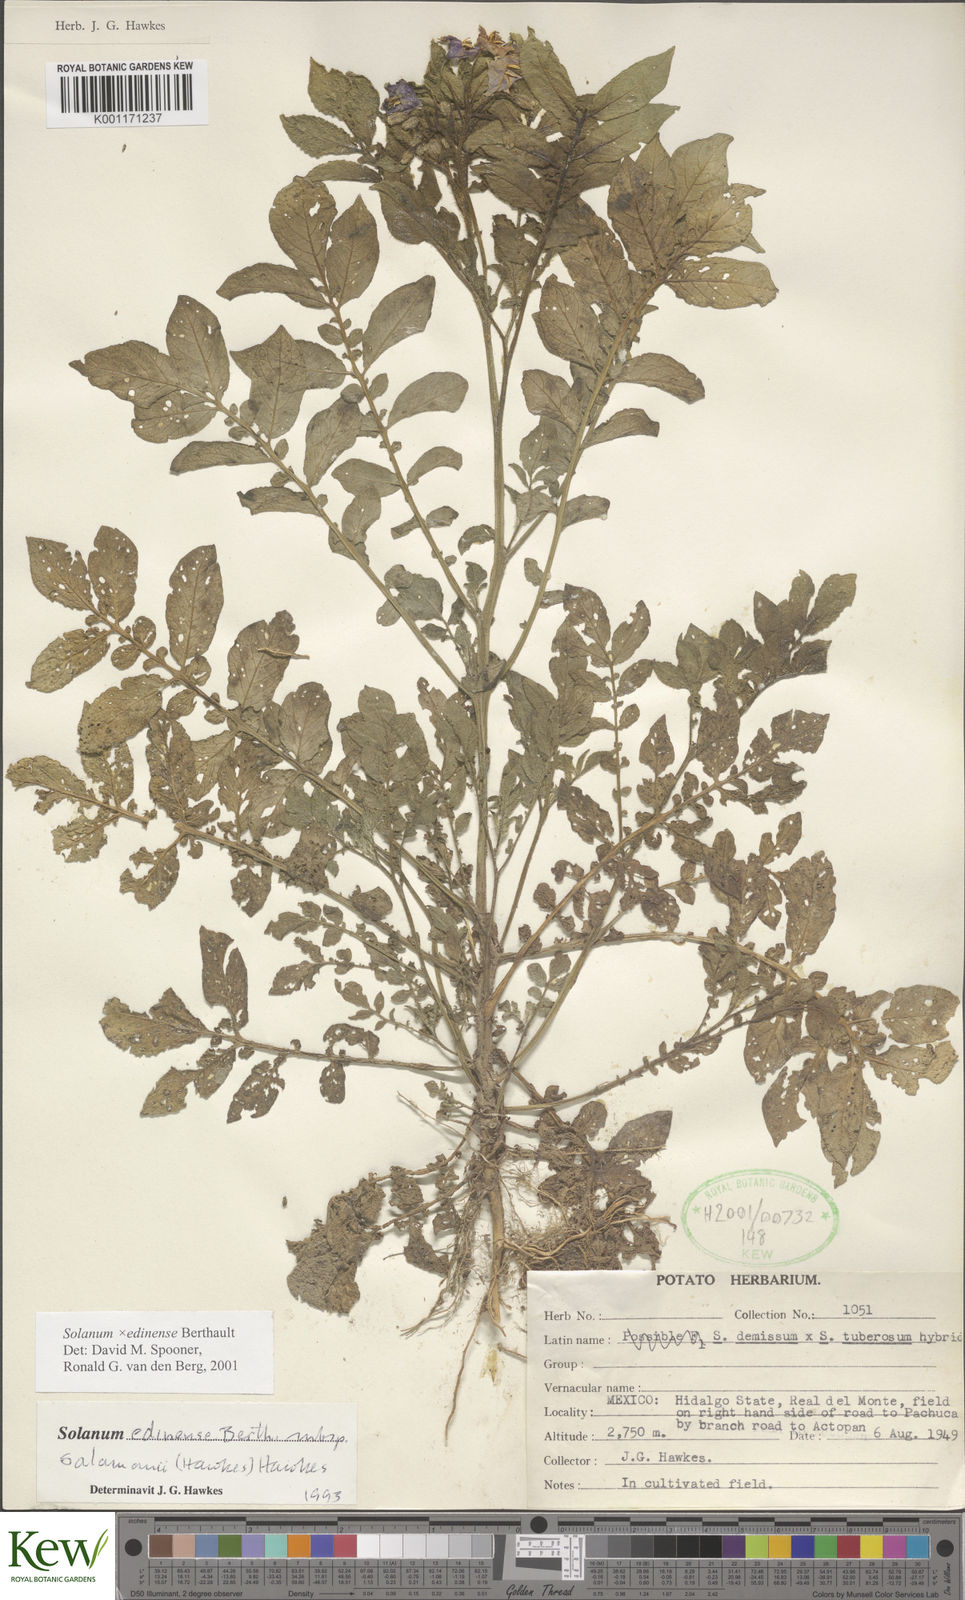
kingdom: Plantae
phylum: Tracheophyta
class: Magnoliopsida
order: Solanales
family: Solanaceae
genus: Solanum
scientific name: Solanum edinense
